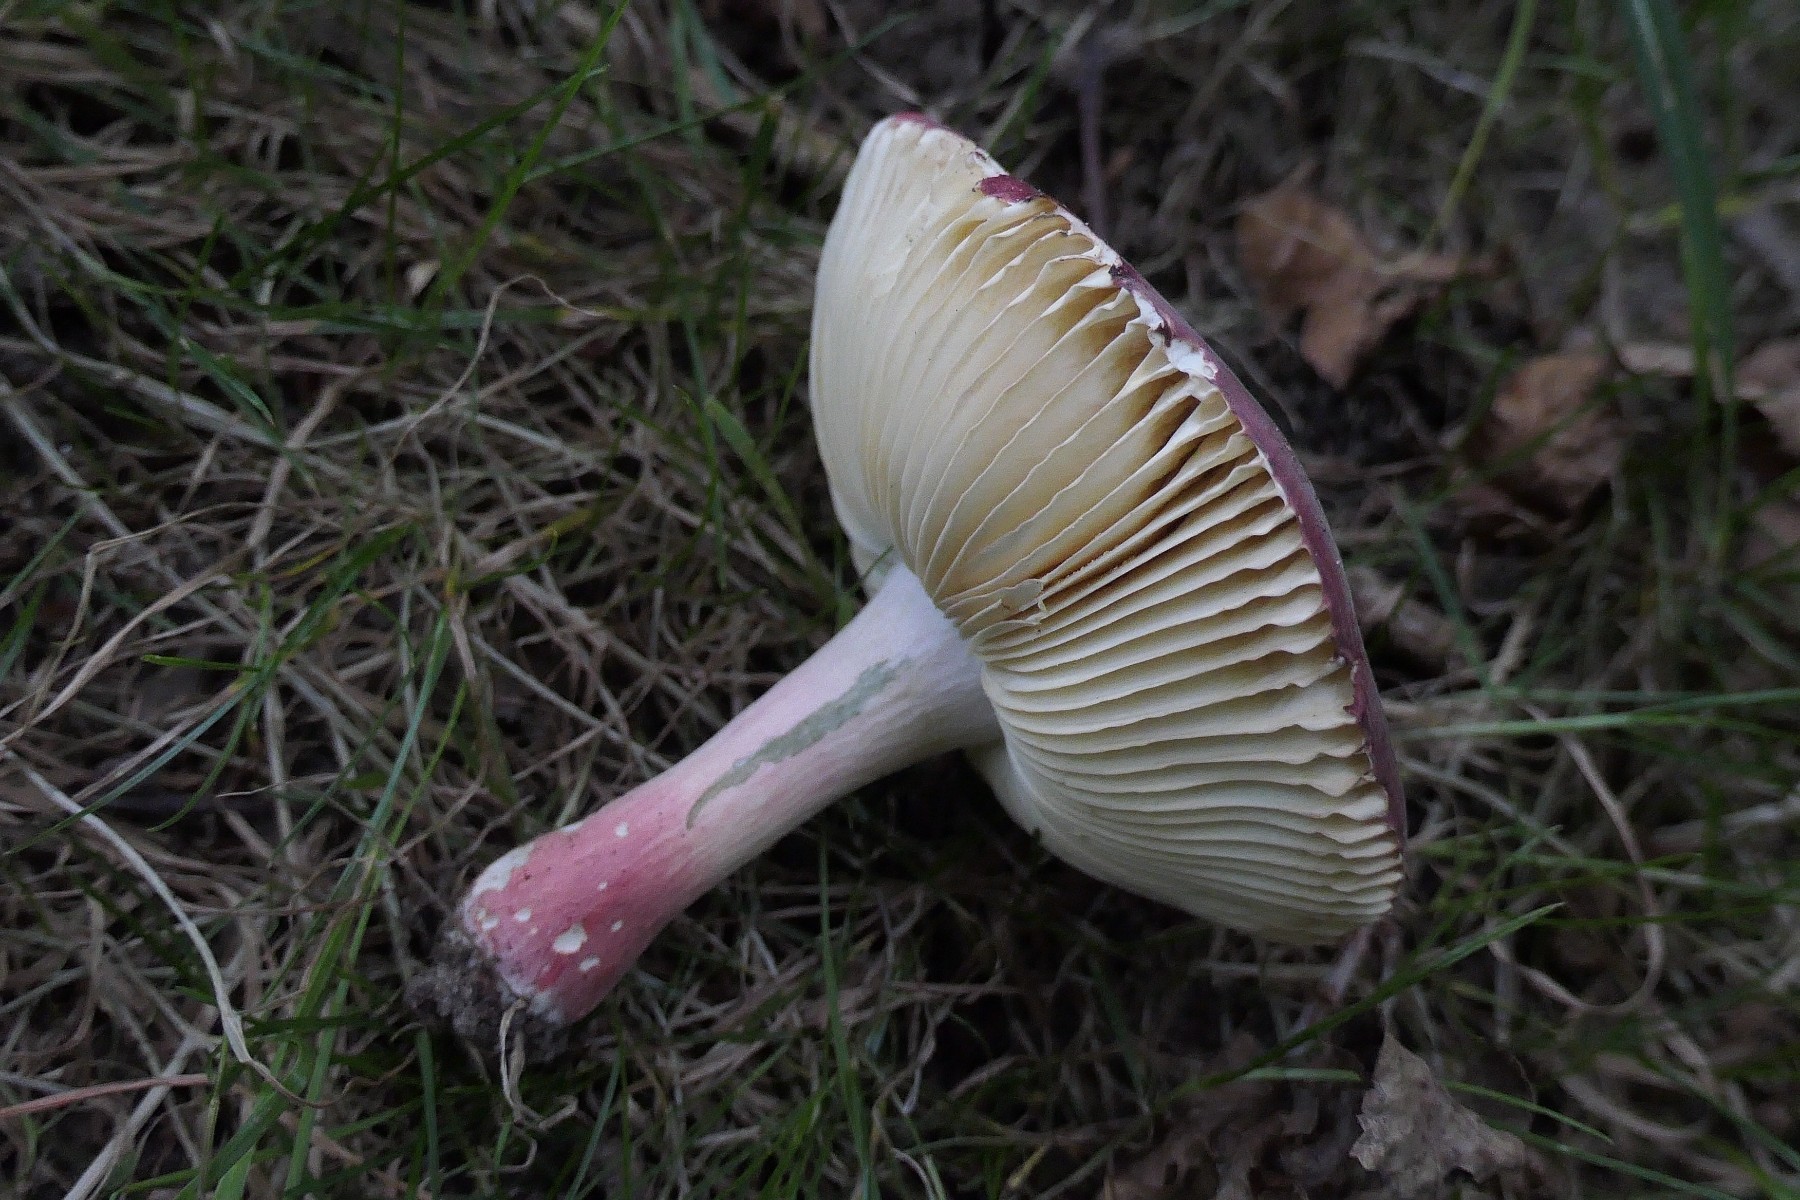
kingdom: Fungi
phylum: Basidiomycota
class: Agaricomycetes
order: Russulales
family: Russulaceae
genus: Russula
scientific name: Russula xerampelina
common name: hummer-skørhat
